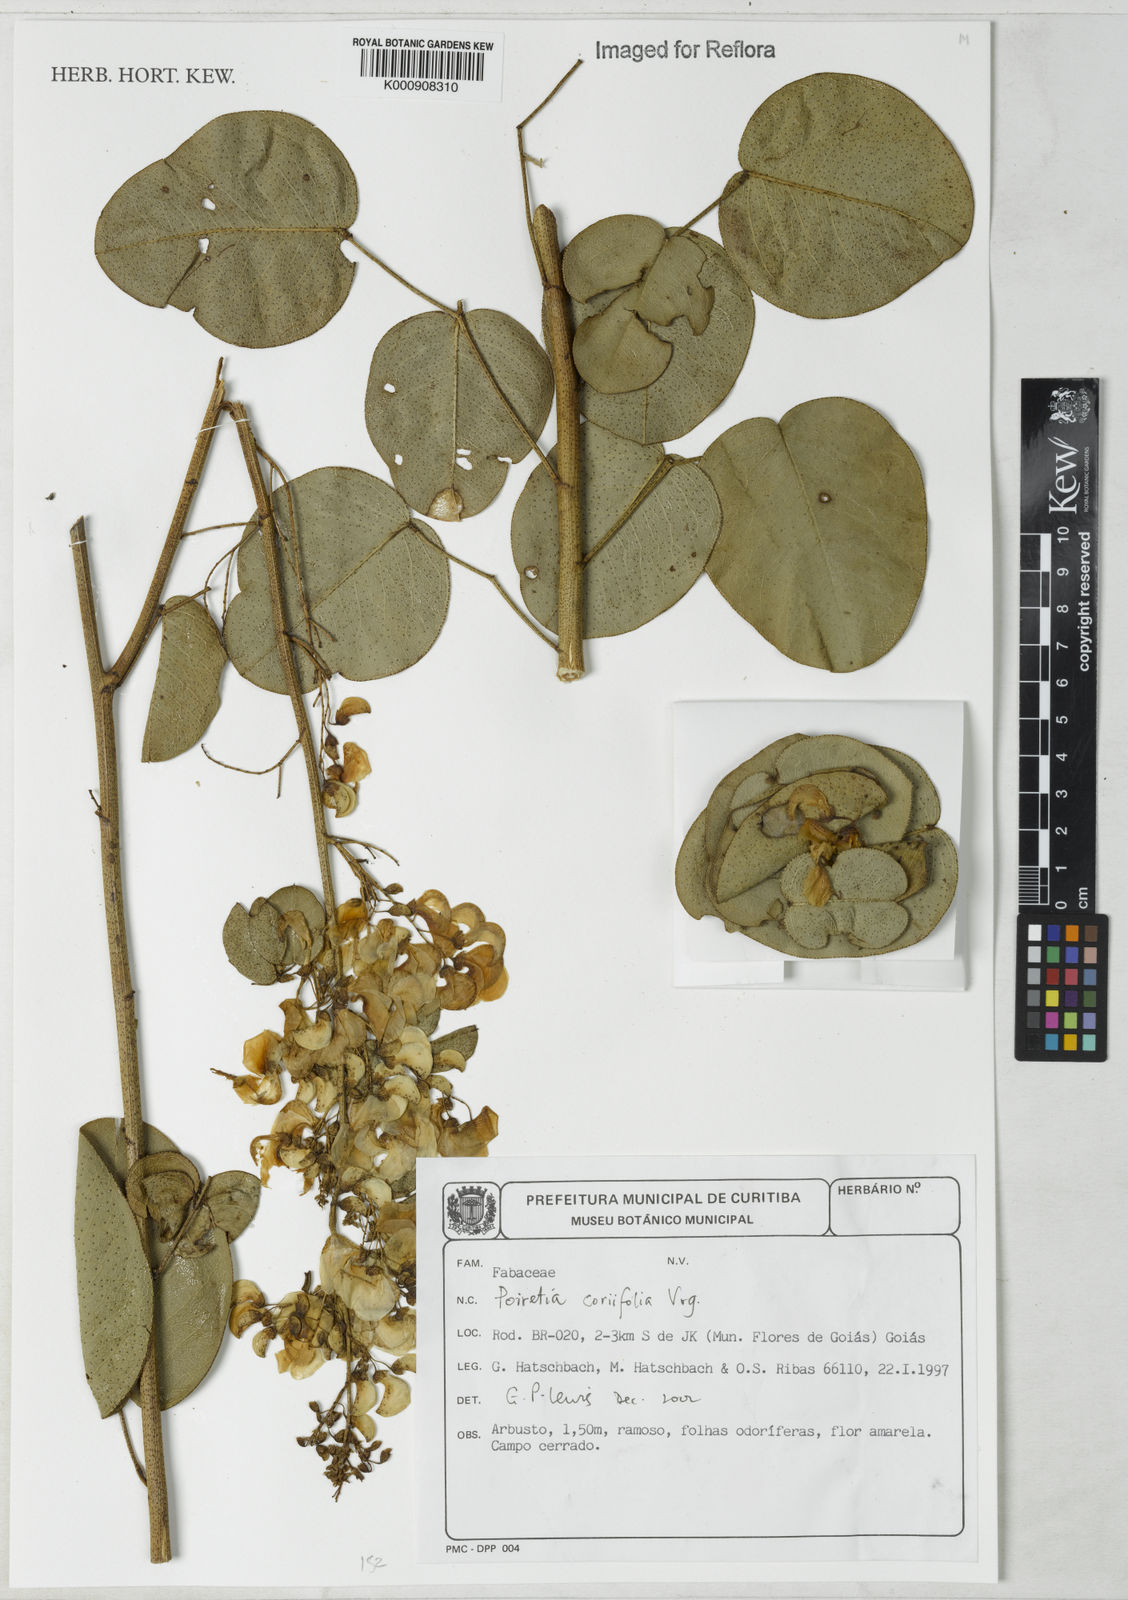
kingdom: Plantae
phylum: Tracheophyta
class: Magnoliopsida
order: Fabales
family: Fabaceae
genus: Poiretia
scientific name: Poiretia coriifolia
